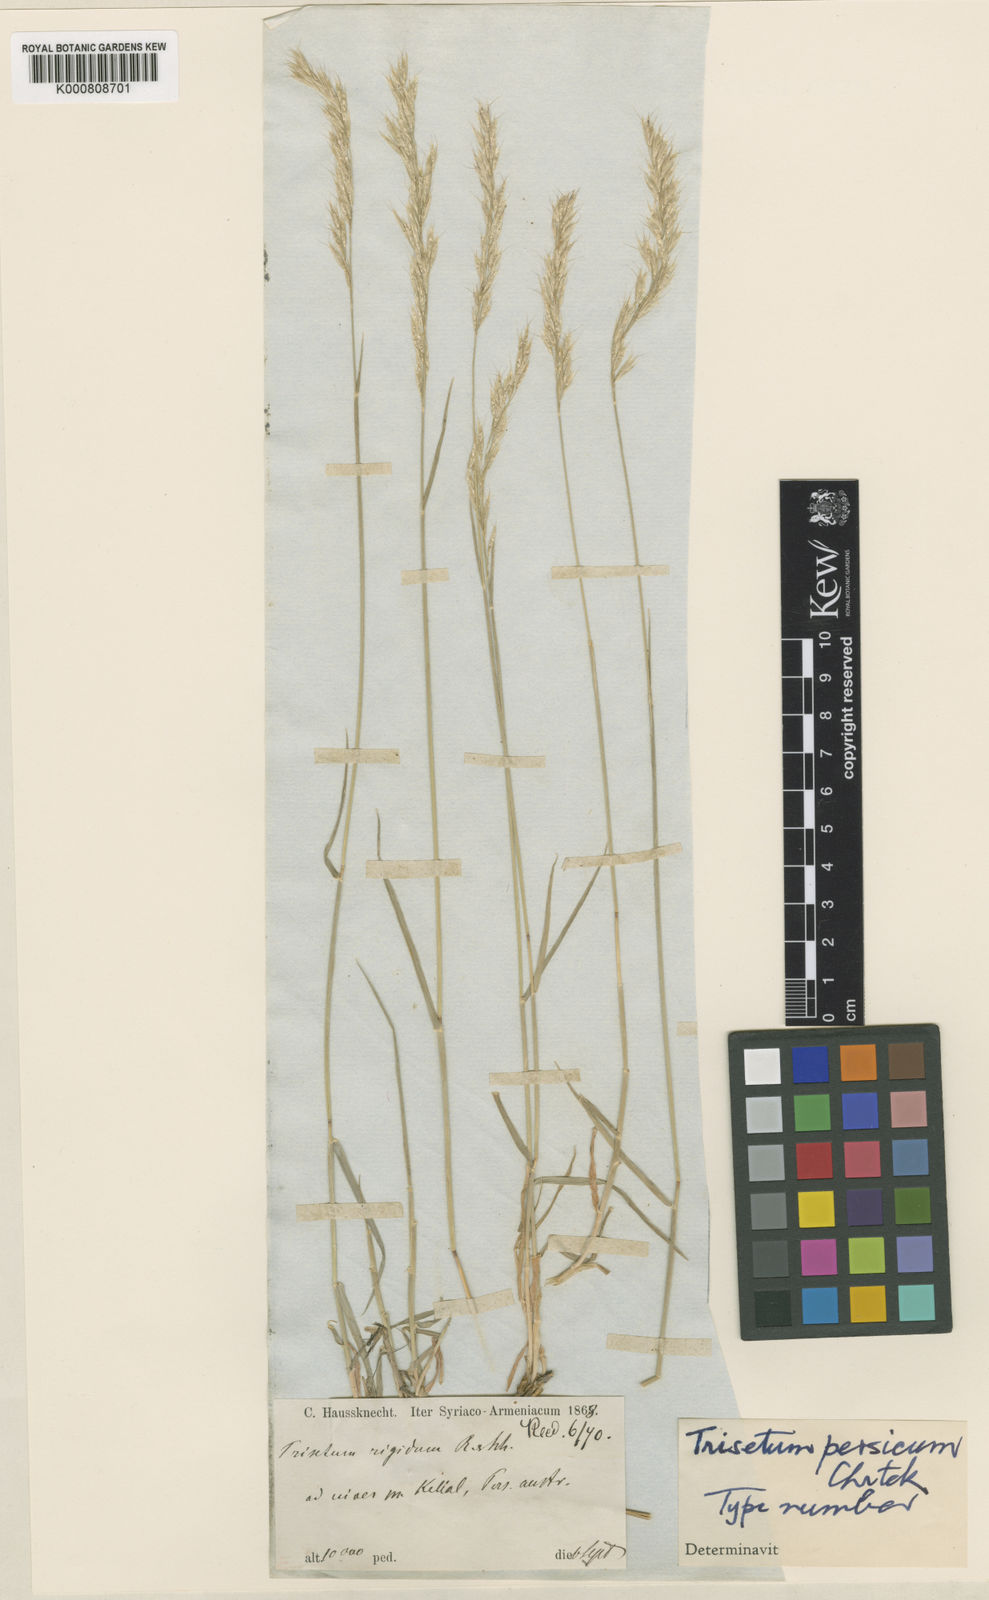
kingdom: Plantae
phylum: Tracheophyta
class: Liliopsida
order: Poales
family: Poaceae
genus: Trisetum
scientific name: Trisetum rigidum
